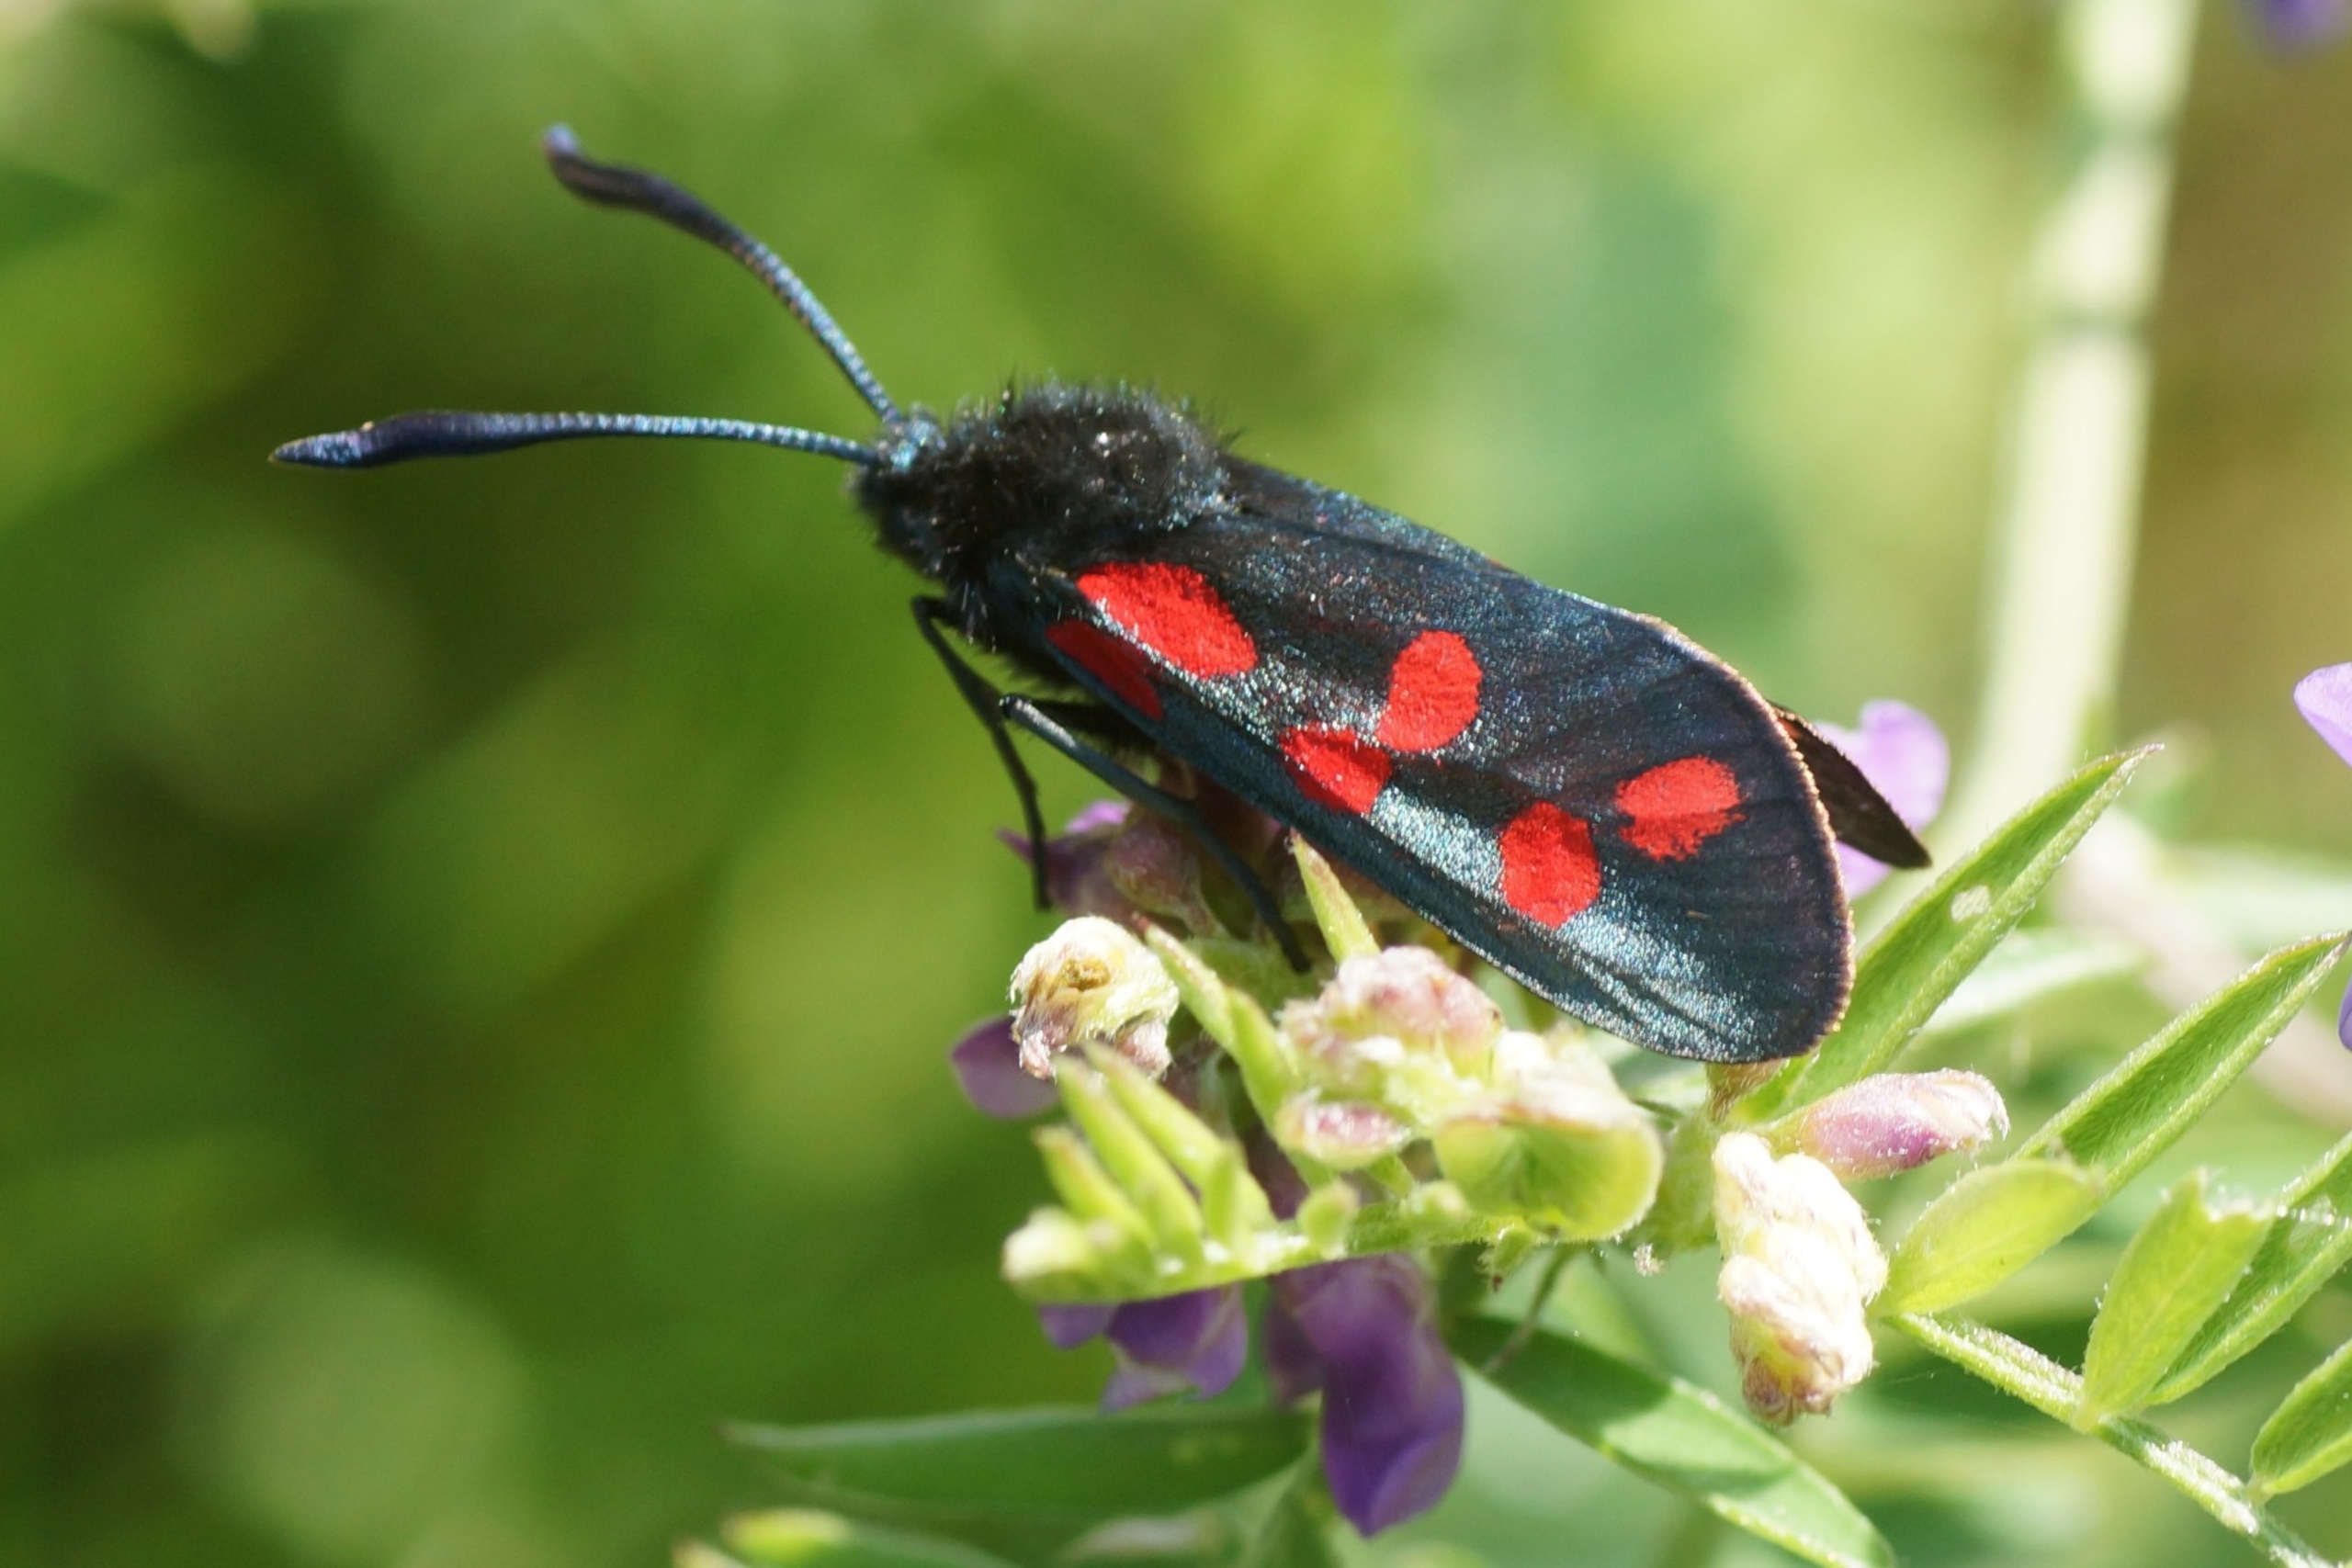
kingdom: Animalia
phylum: Arthropoda
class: Insecta
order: Lepidoptera
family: Zygaenidae
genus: Zygaena
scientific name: Zygaena filipendulae
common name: Seksplettet køllesværmer
